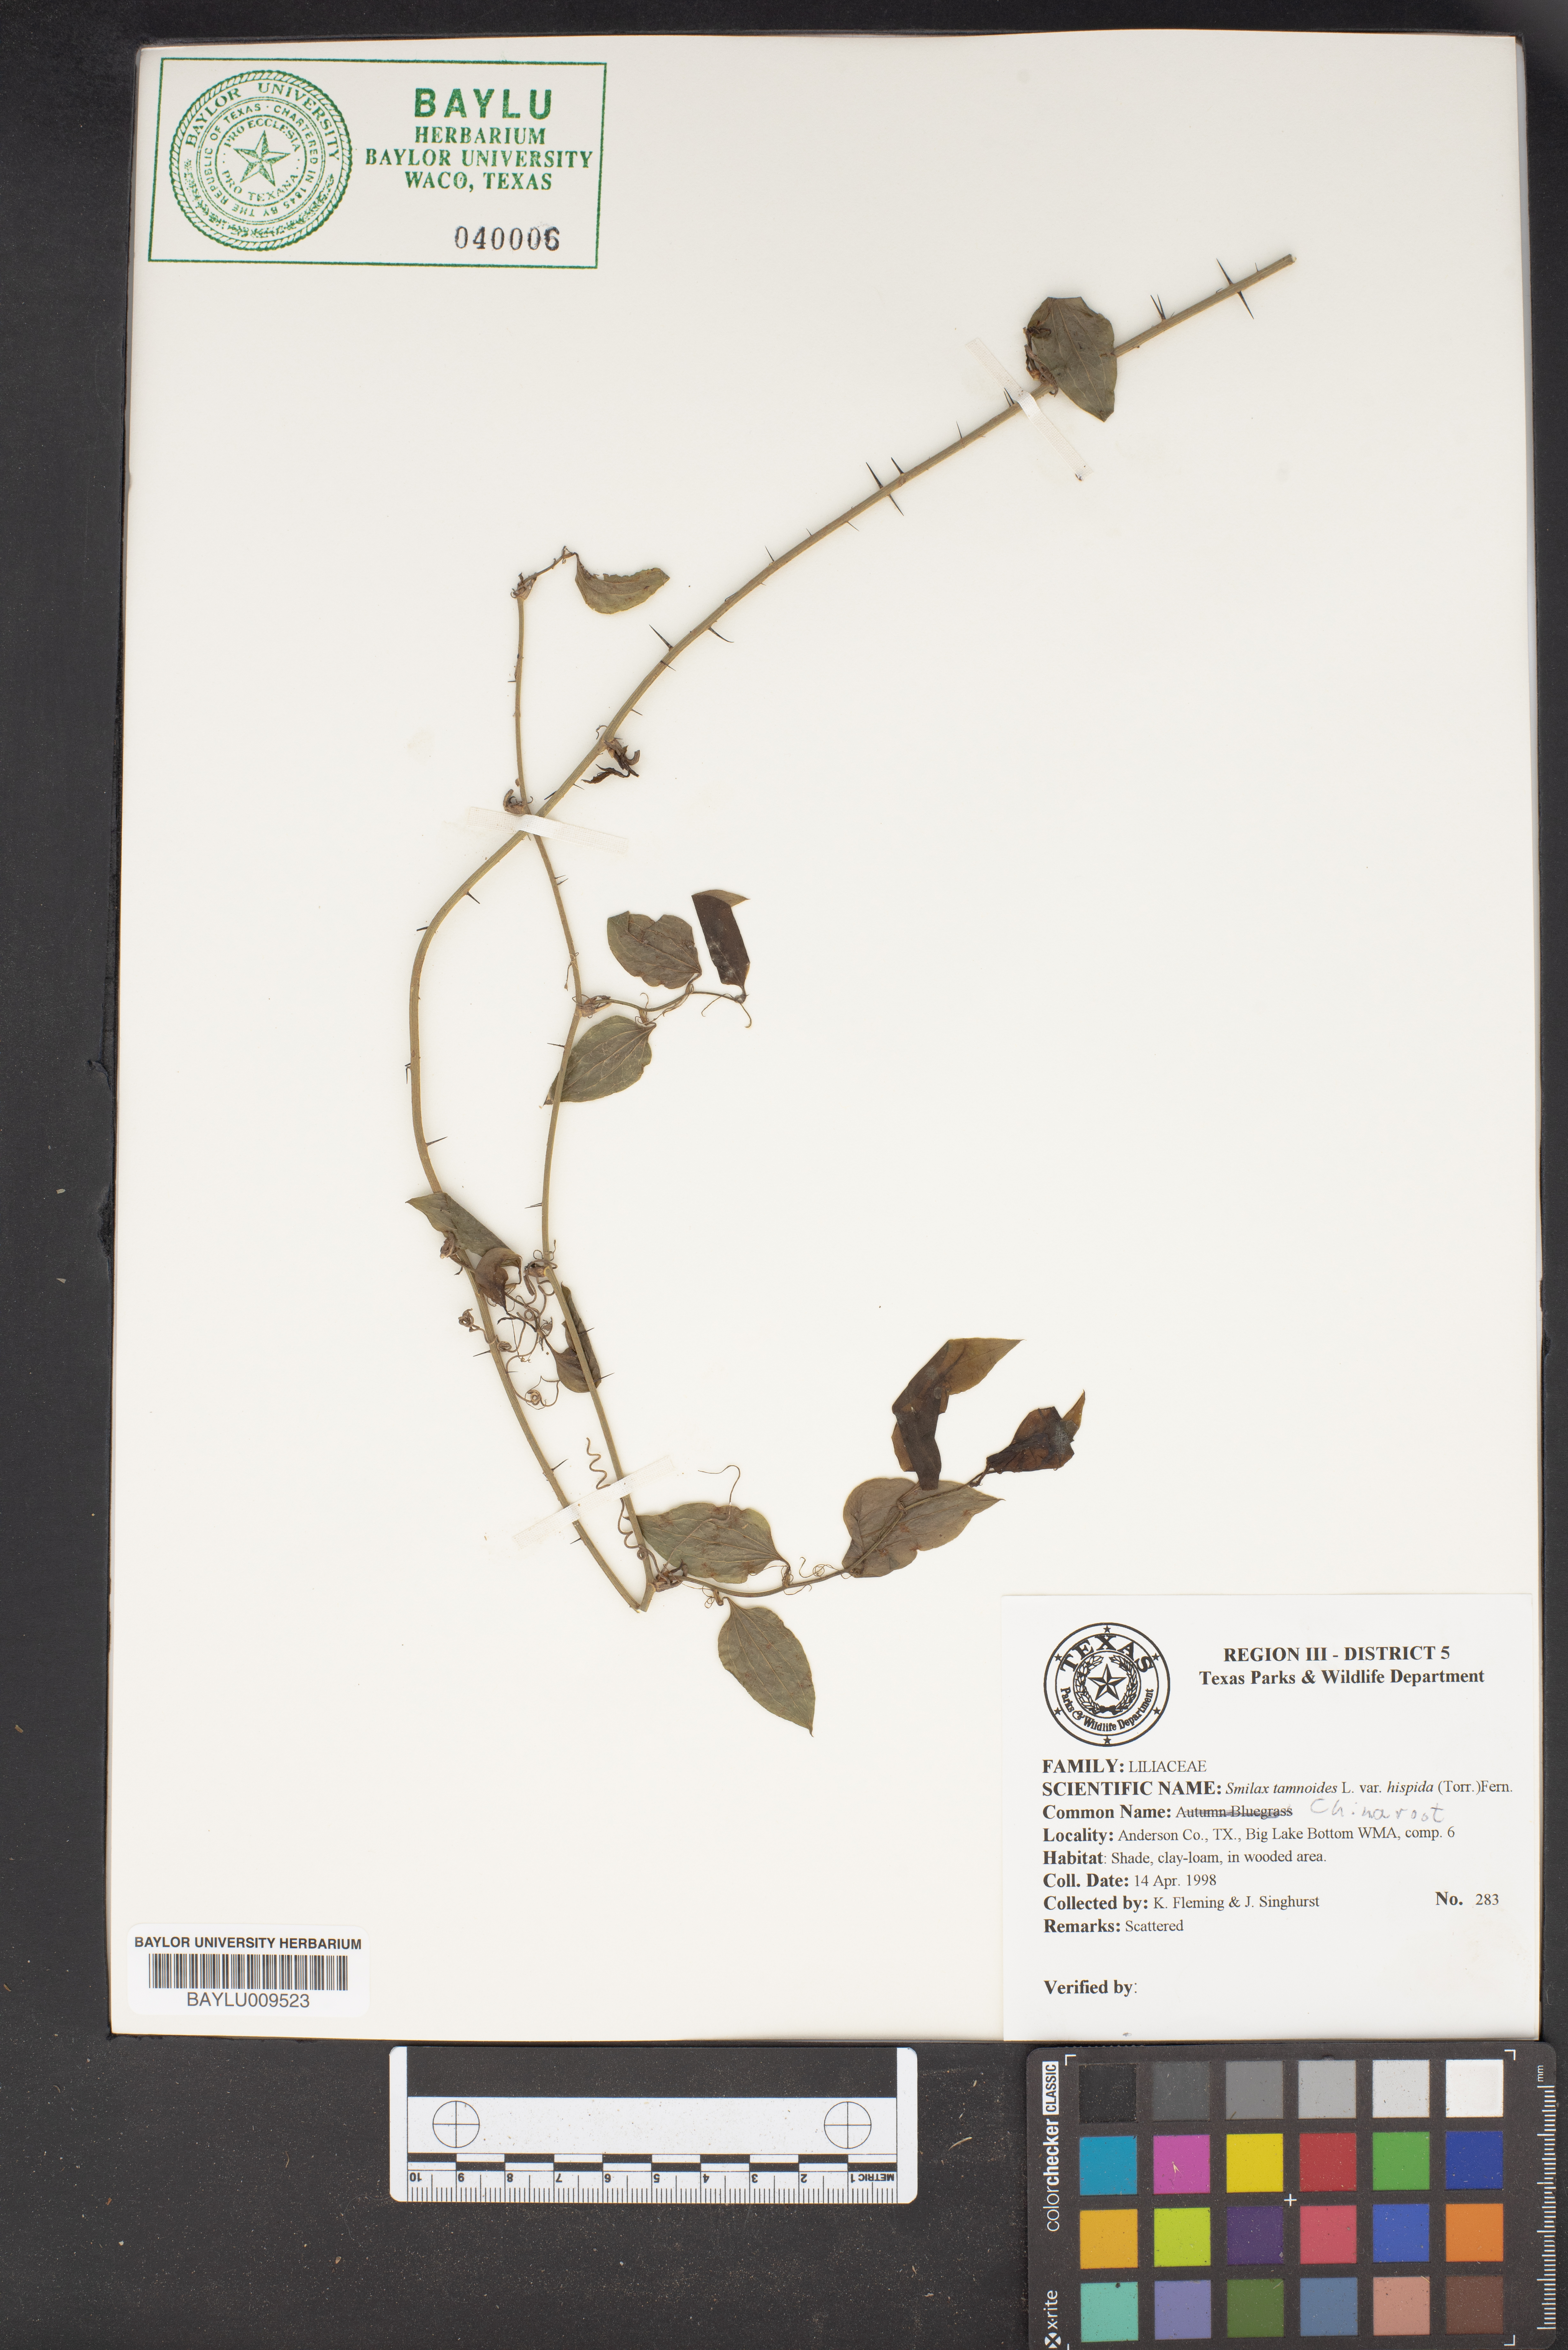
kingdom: Plantae
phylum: Tracheophyta
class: Liliopsida
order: Liliales
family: Smilacaceae
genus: Smilax
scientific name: Smilax tamnoides
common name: Hellfetter
